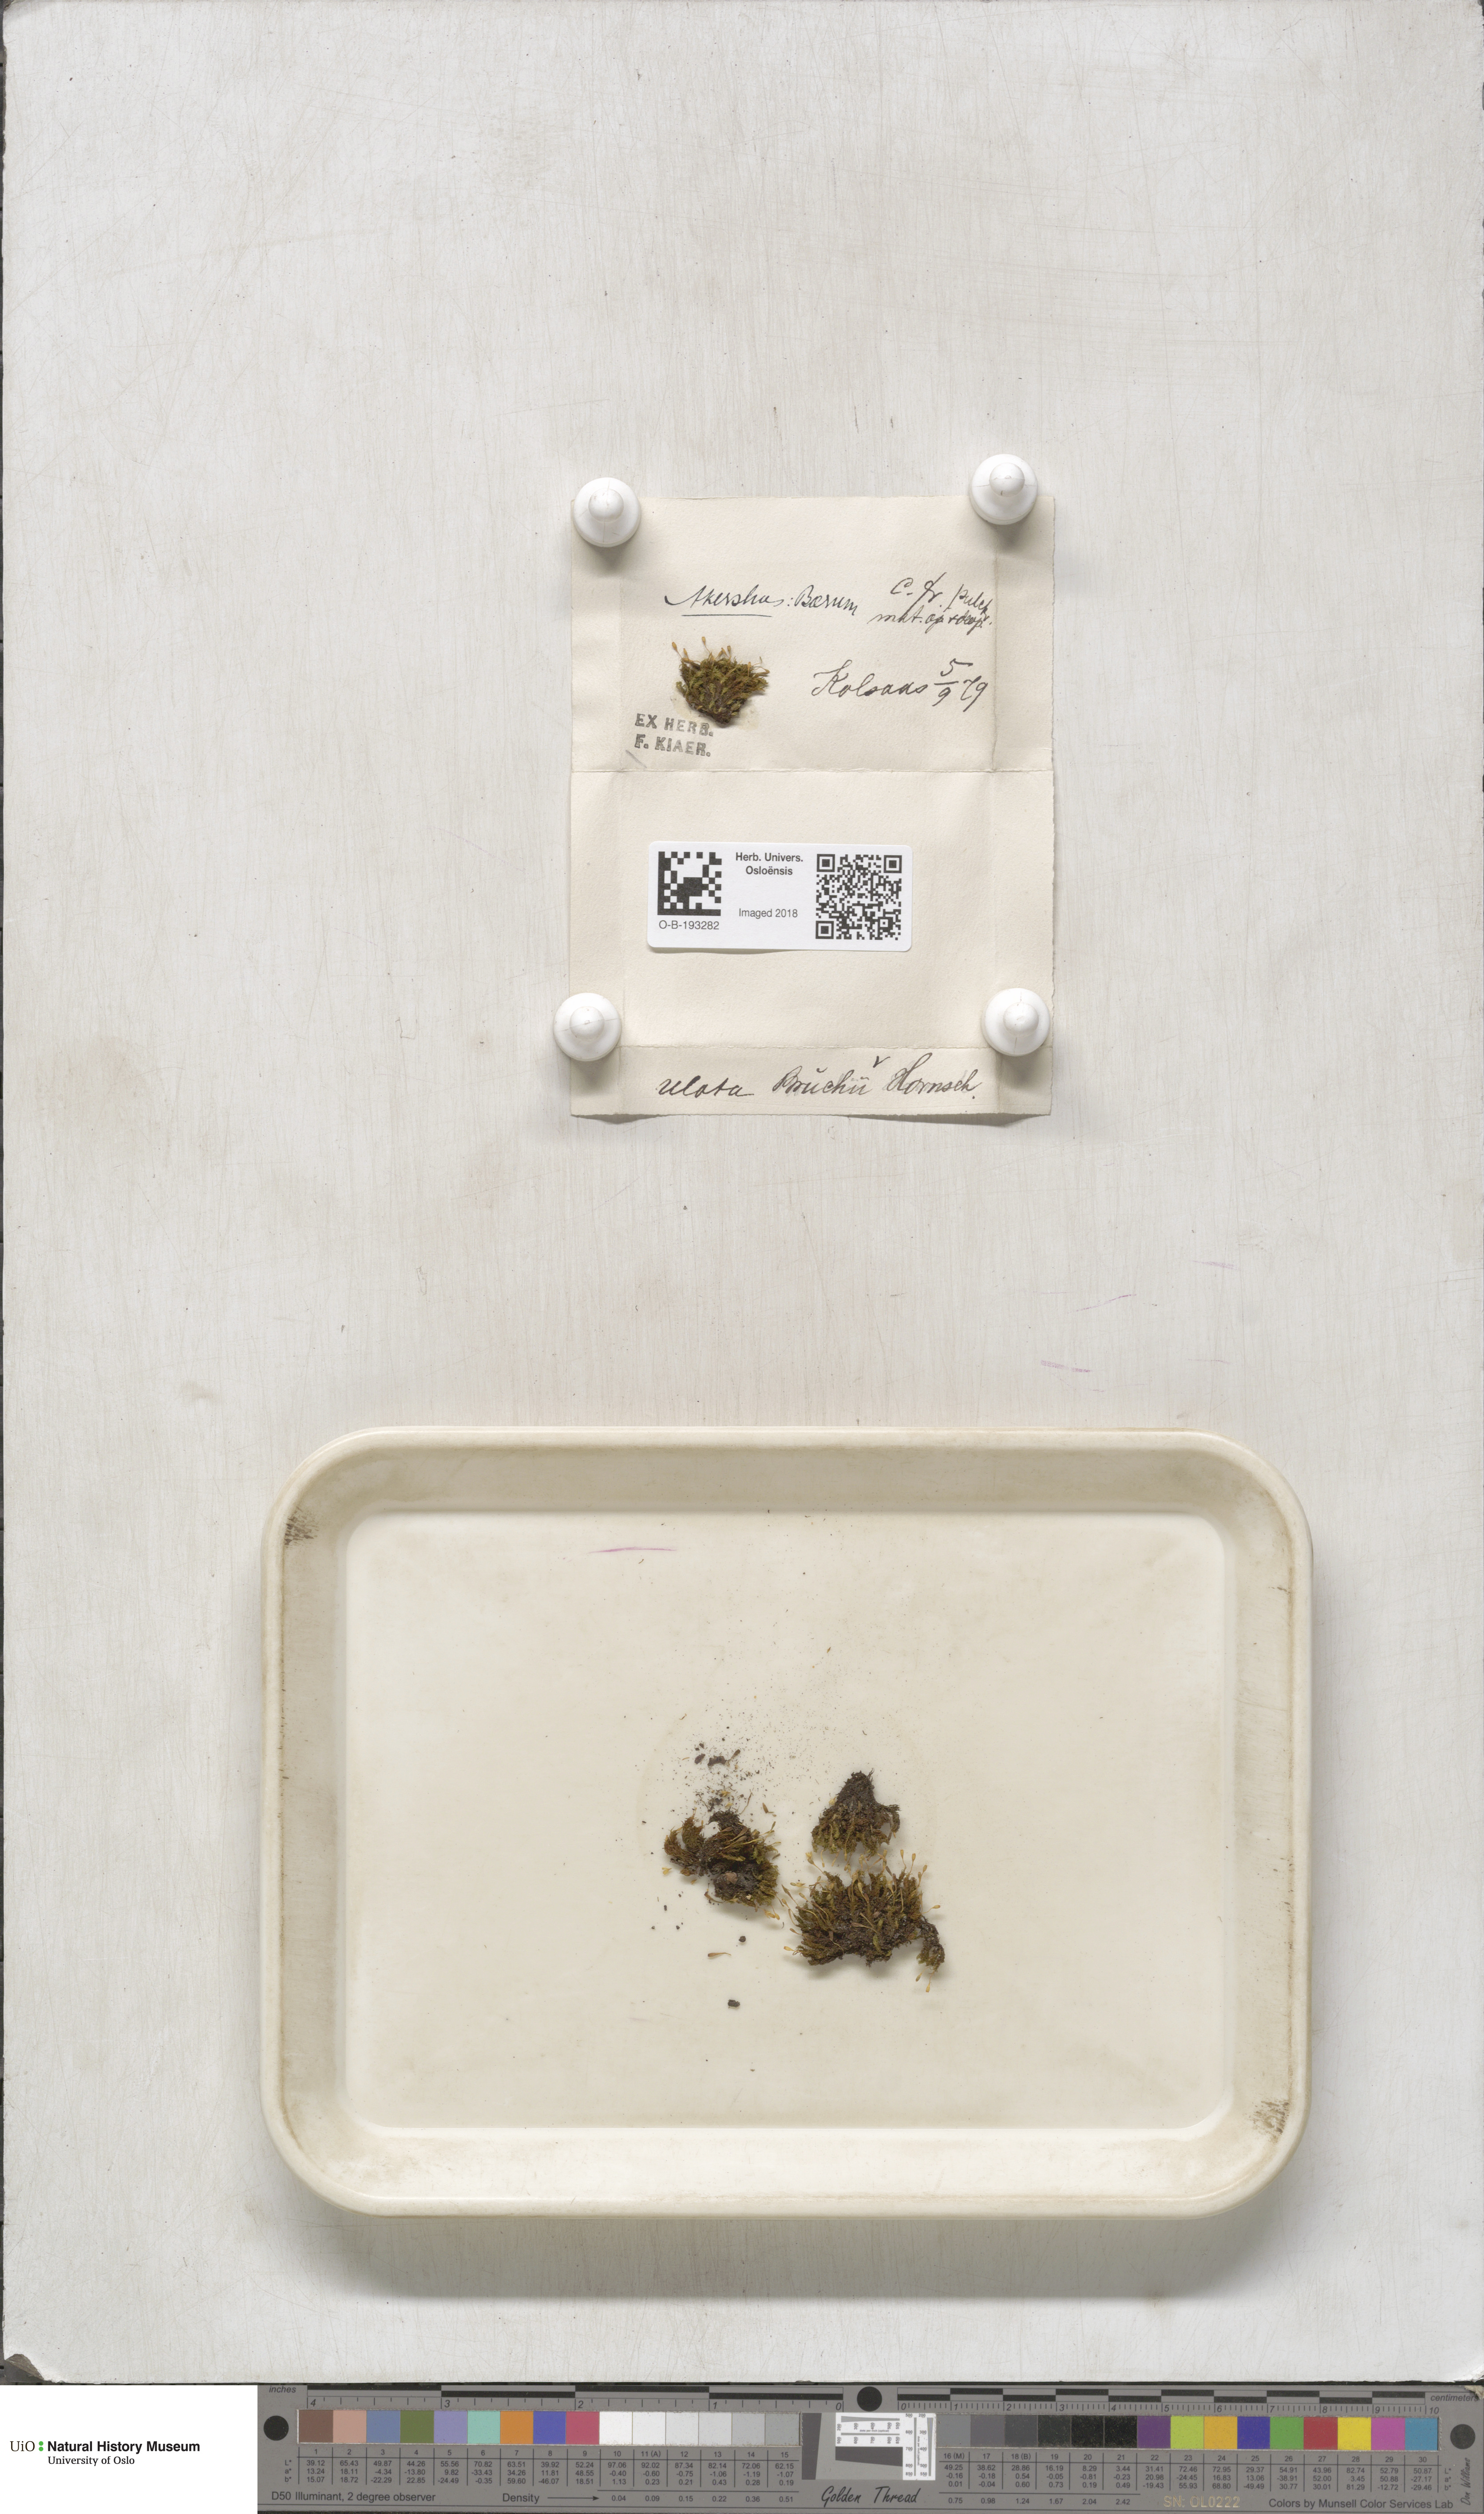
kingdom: Plantae
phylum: Bryophyta
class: Bryopsida
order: Orthotrichales
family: Orthotrichaceae
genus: Ulota
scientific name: Ulota bruchii
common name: Bruch's pincushion
